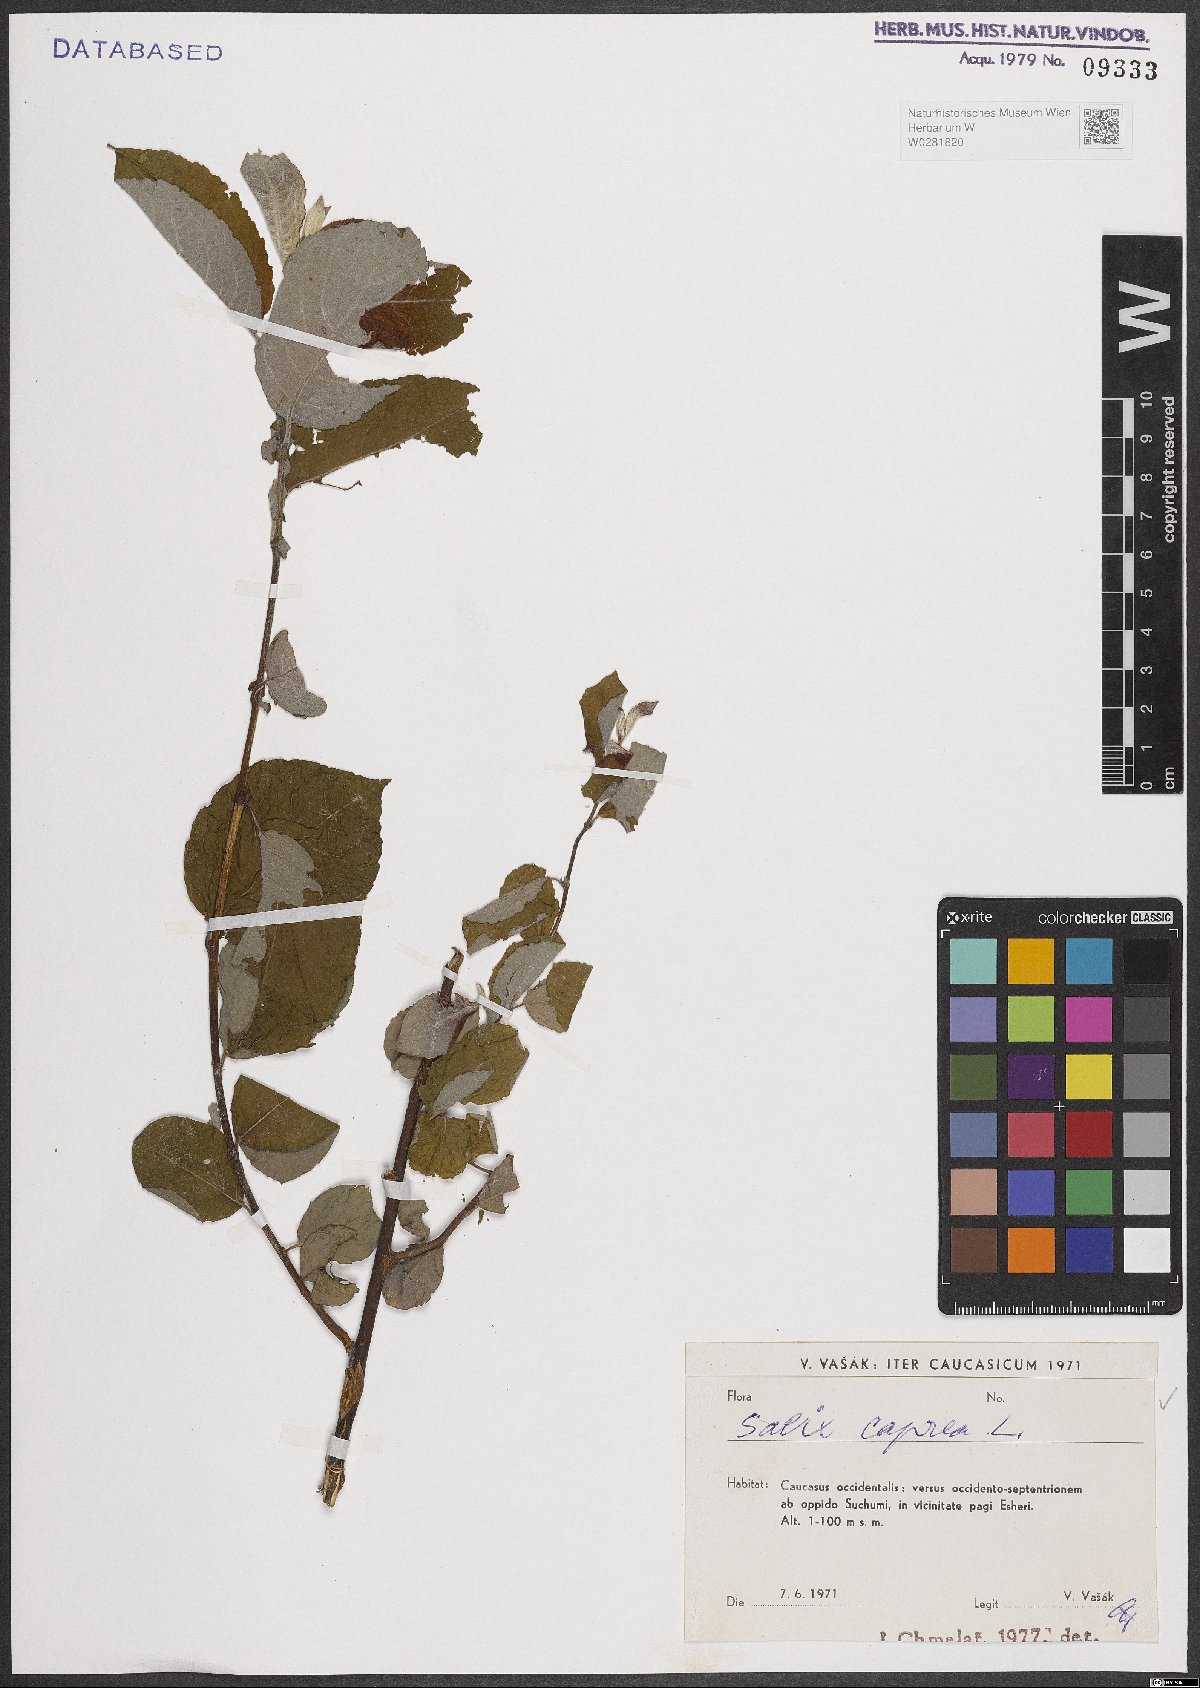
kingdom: Plantae
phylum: Tracheophyta
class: Magnoliopsida
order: Malpighiales
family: Salicaceae
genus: Salix
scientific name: Salix caprea
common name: Goat willow
